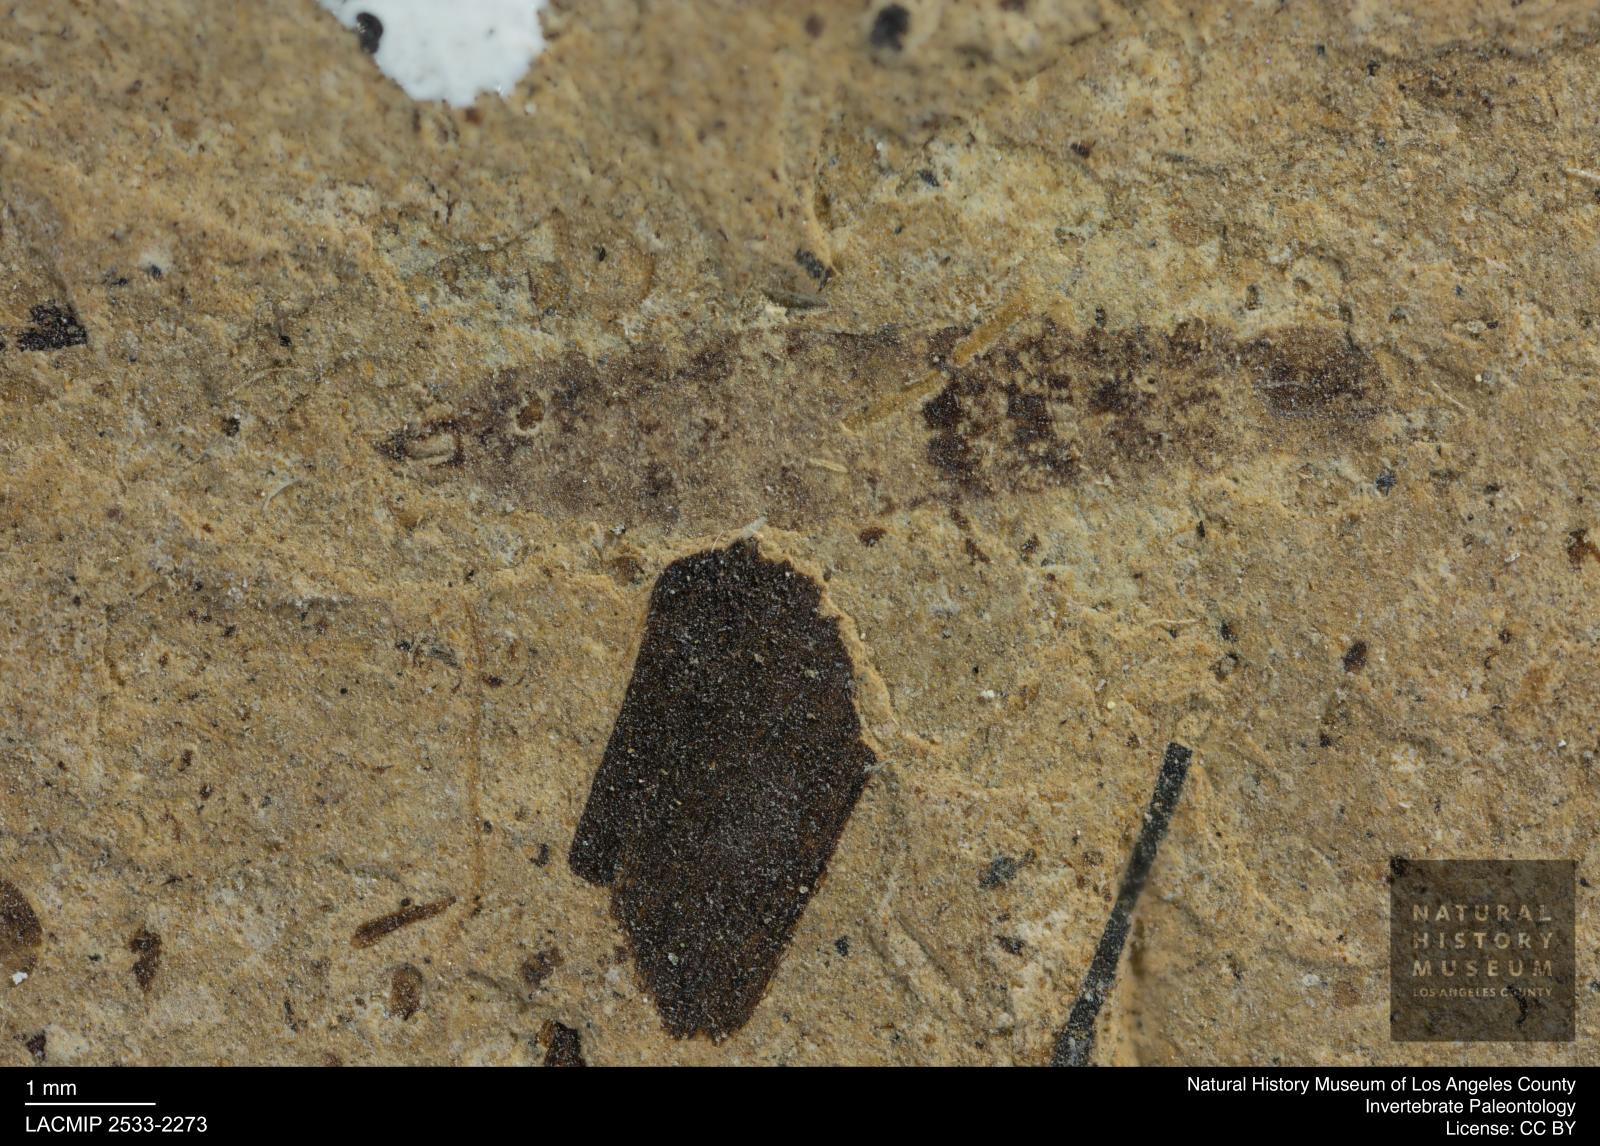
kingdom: Animalia
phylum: Arthropoda
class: Insecta
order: Diptera
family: Stratiomyidae
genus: Odontomyia
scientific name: Odontomyia
